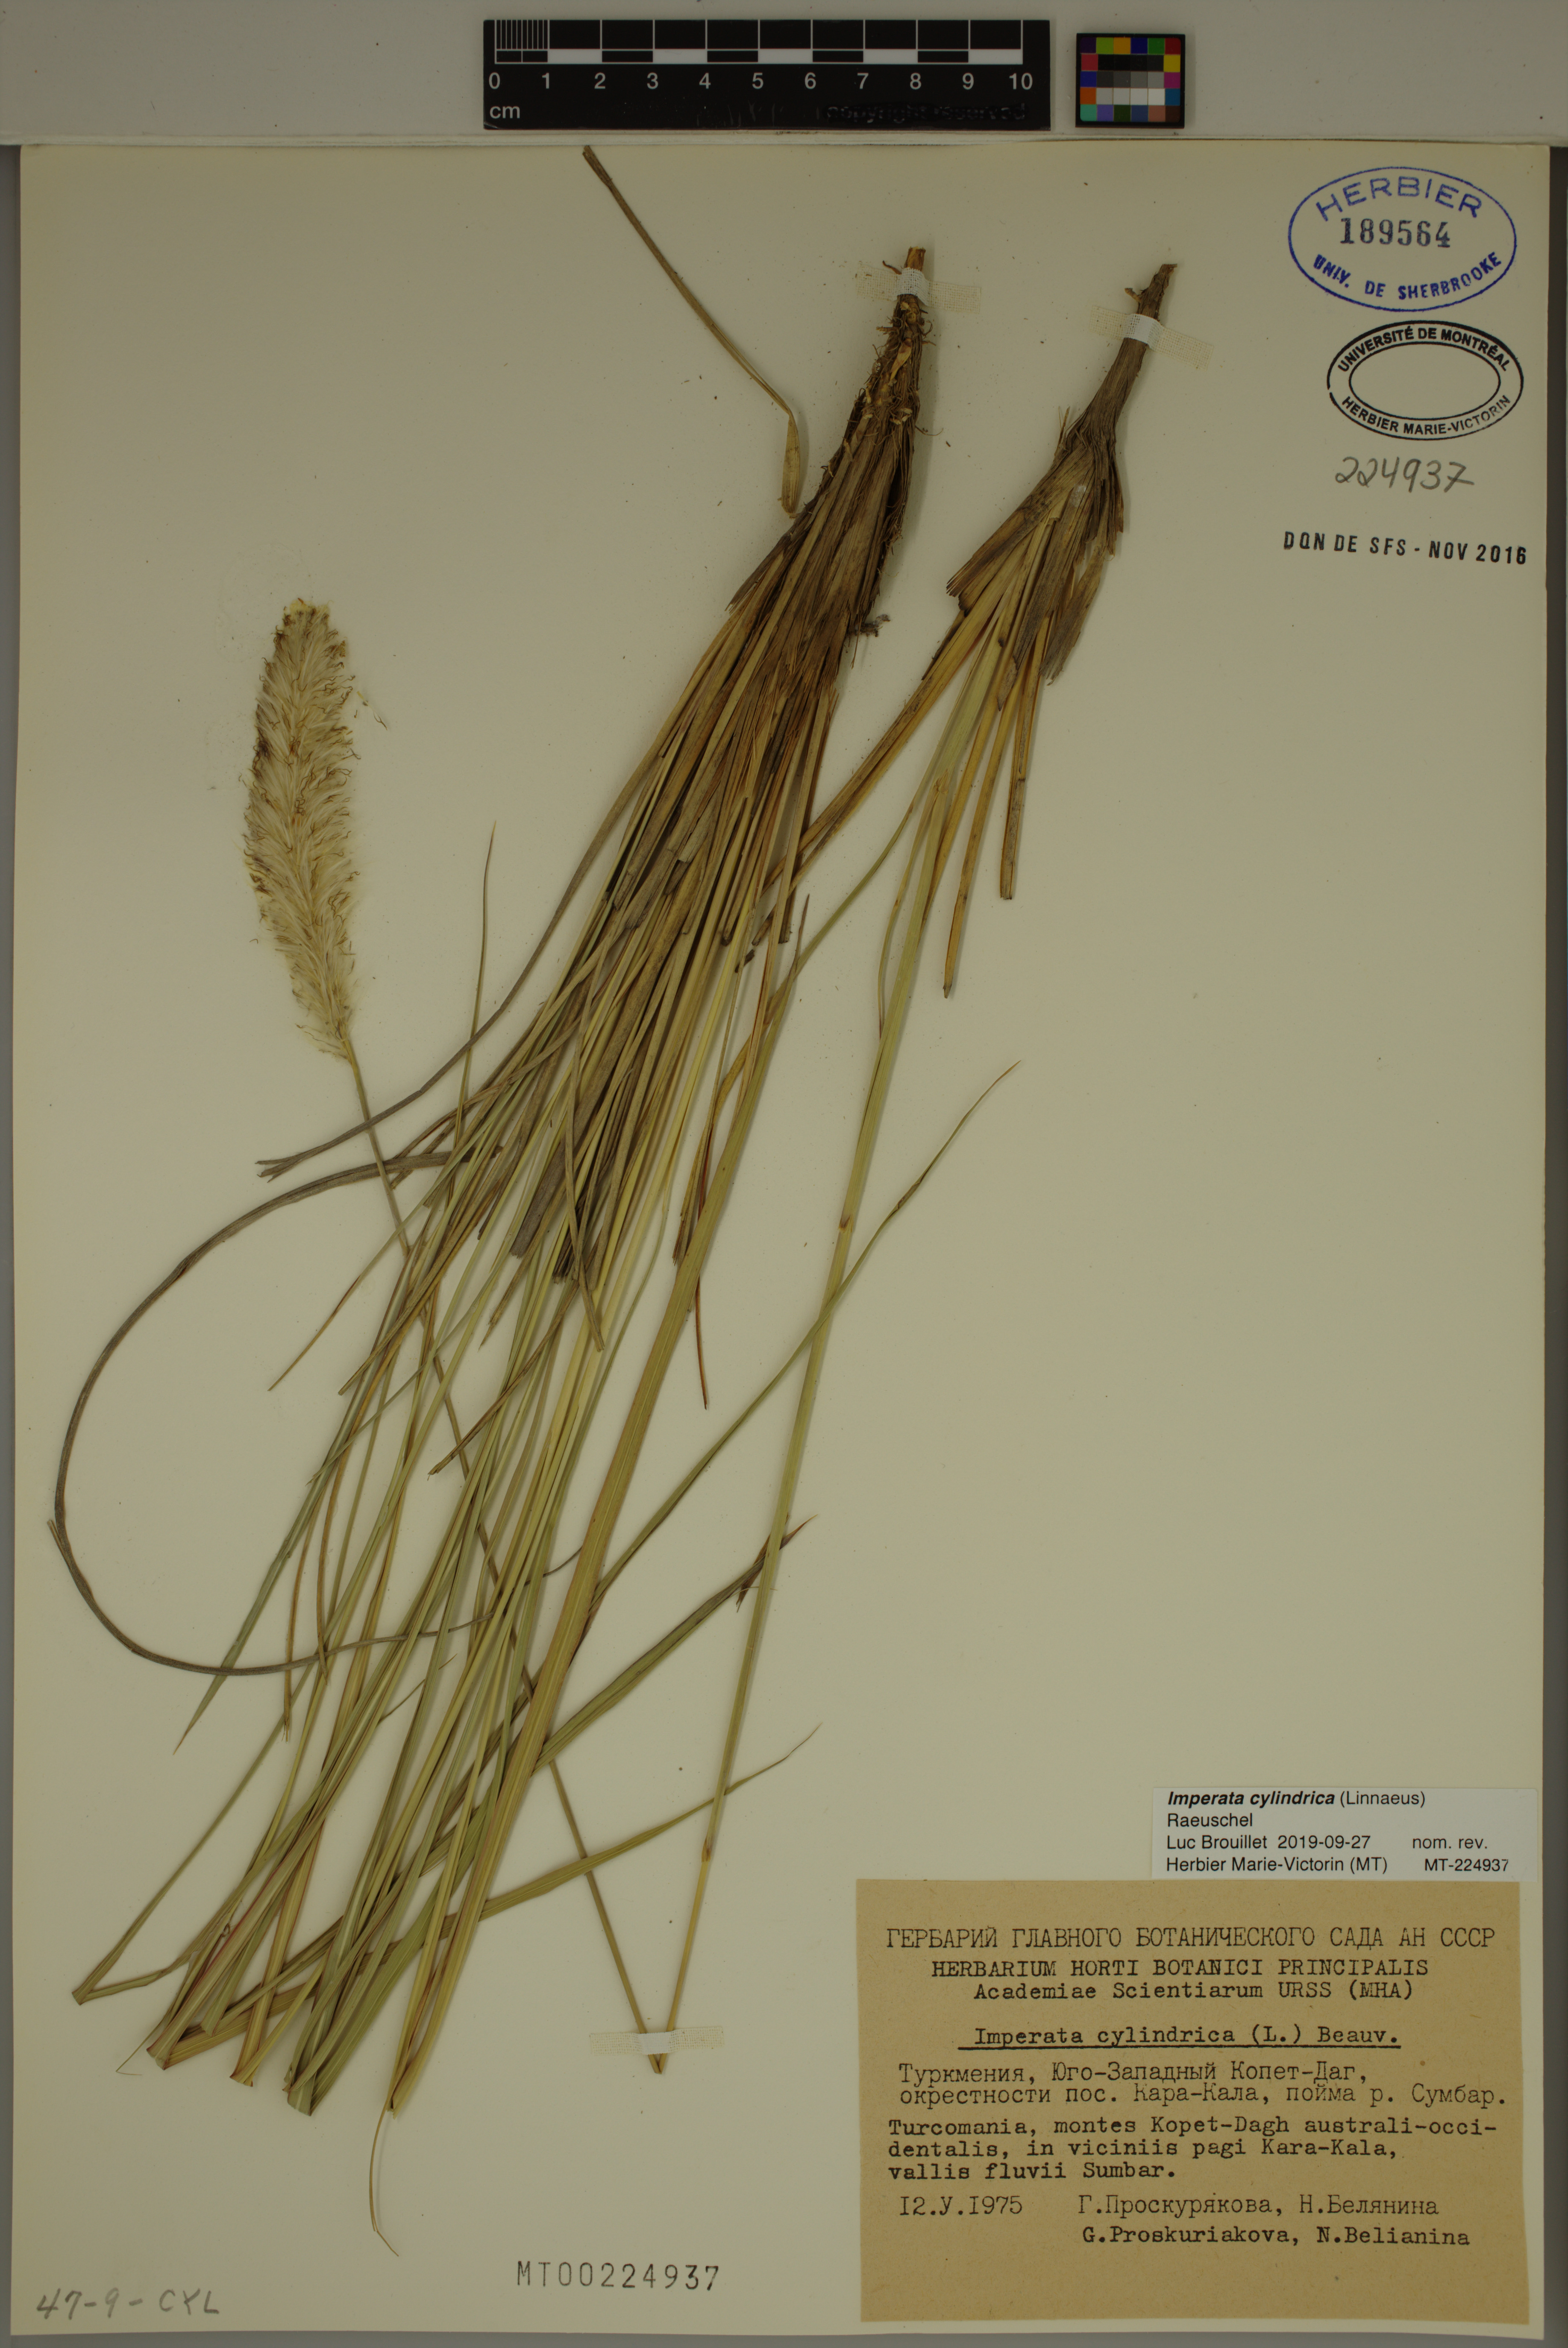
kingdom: Plantae
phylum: Tracheophyta
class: Liliopsida
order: Poales
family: Poaceae
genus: Imperata
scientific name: Imperata cylindrica
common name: Cogongrass
